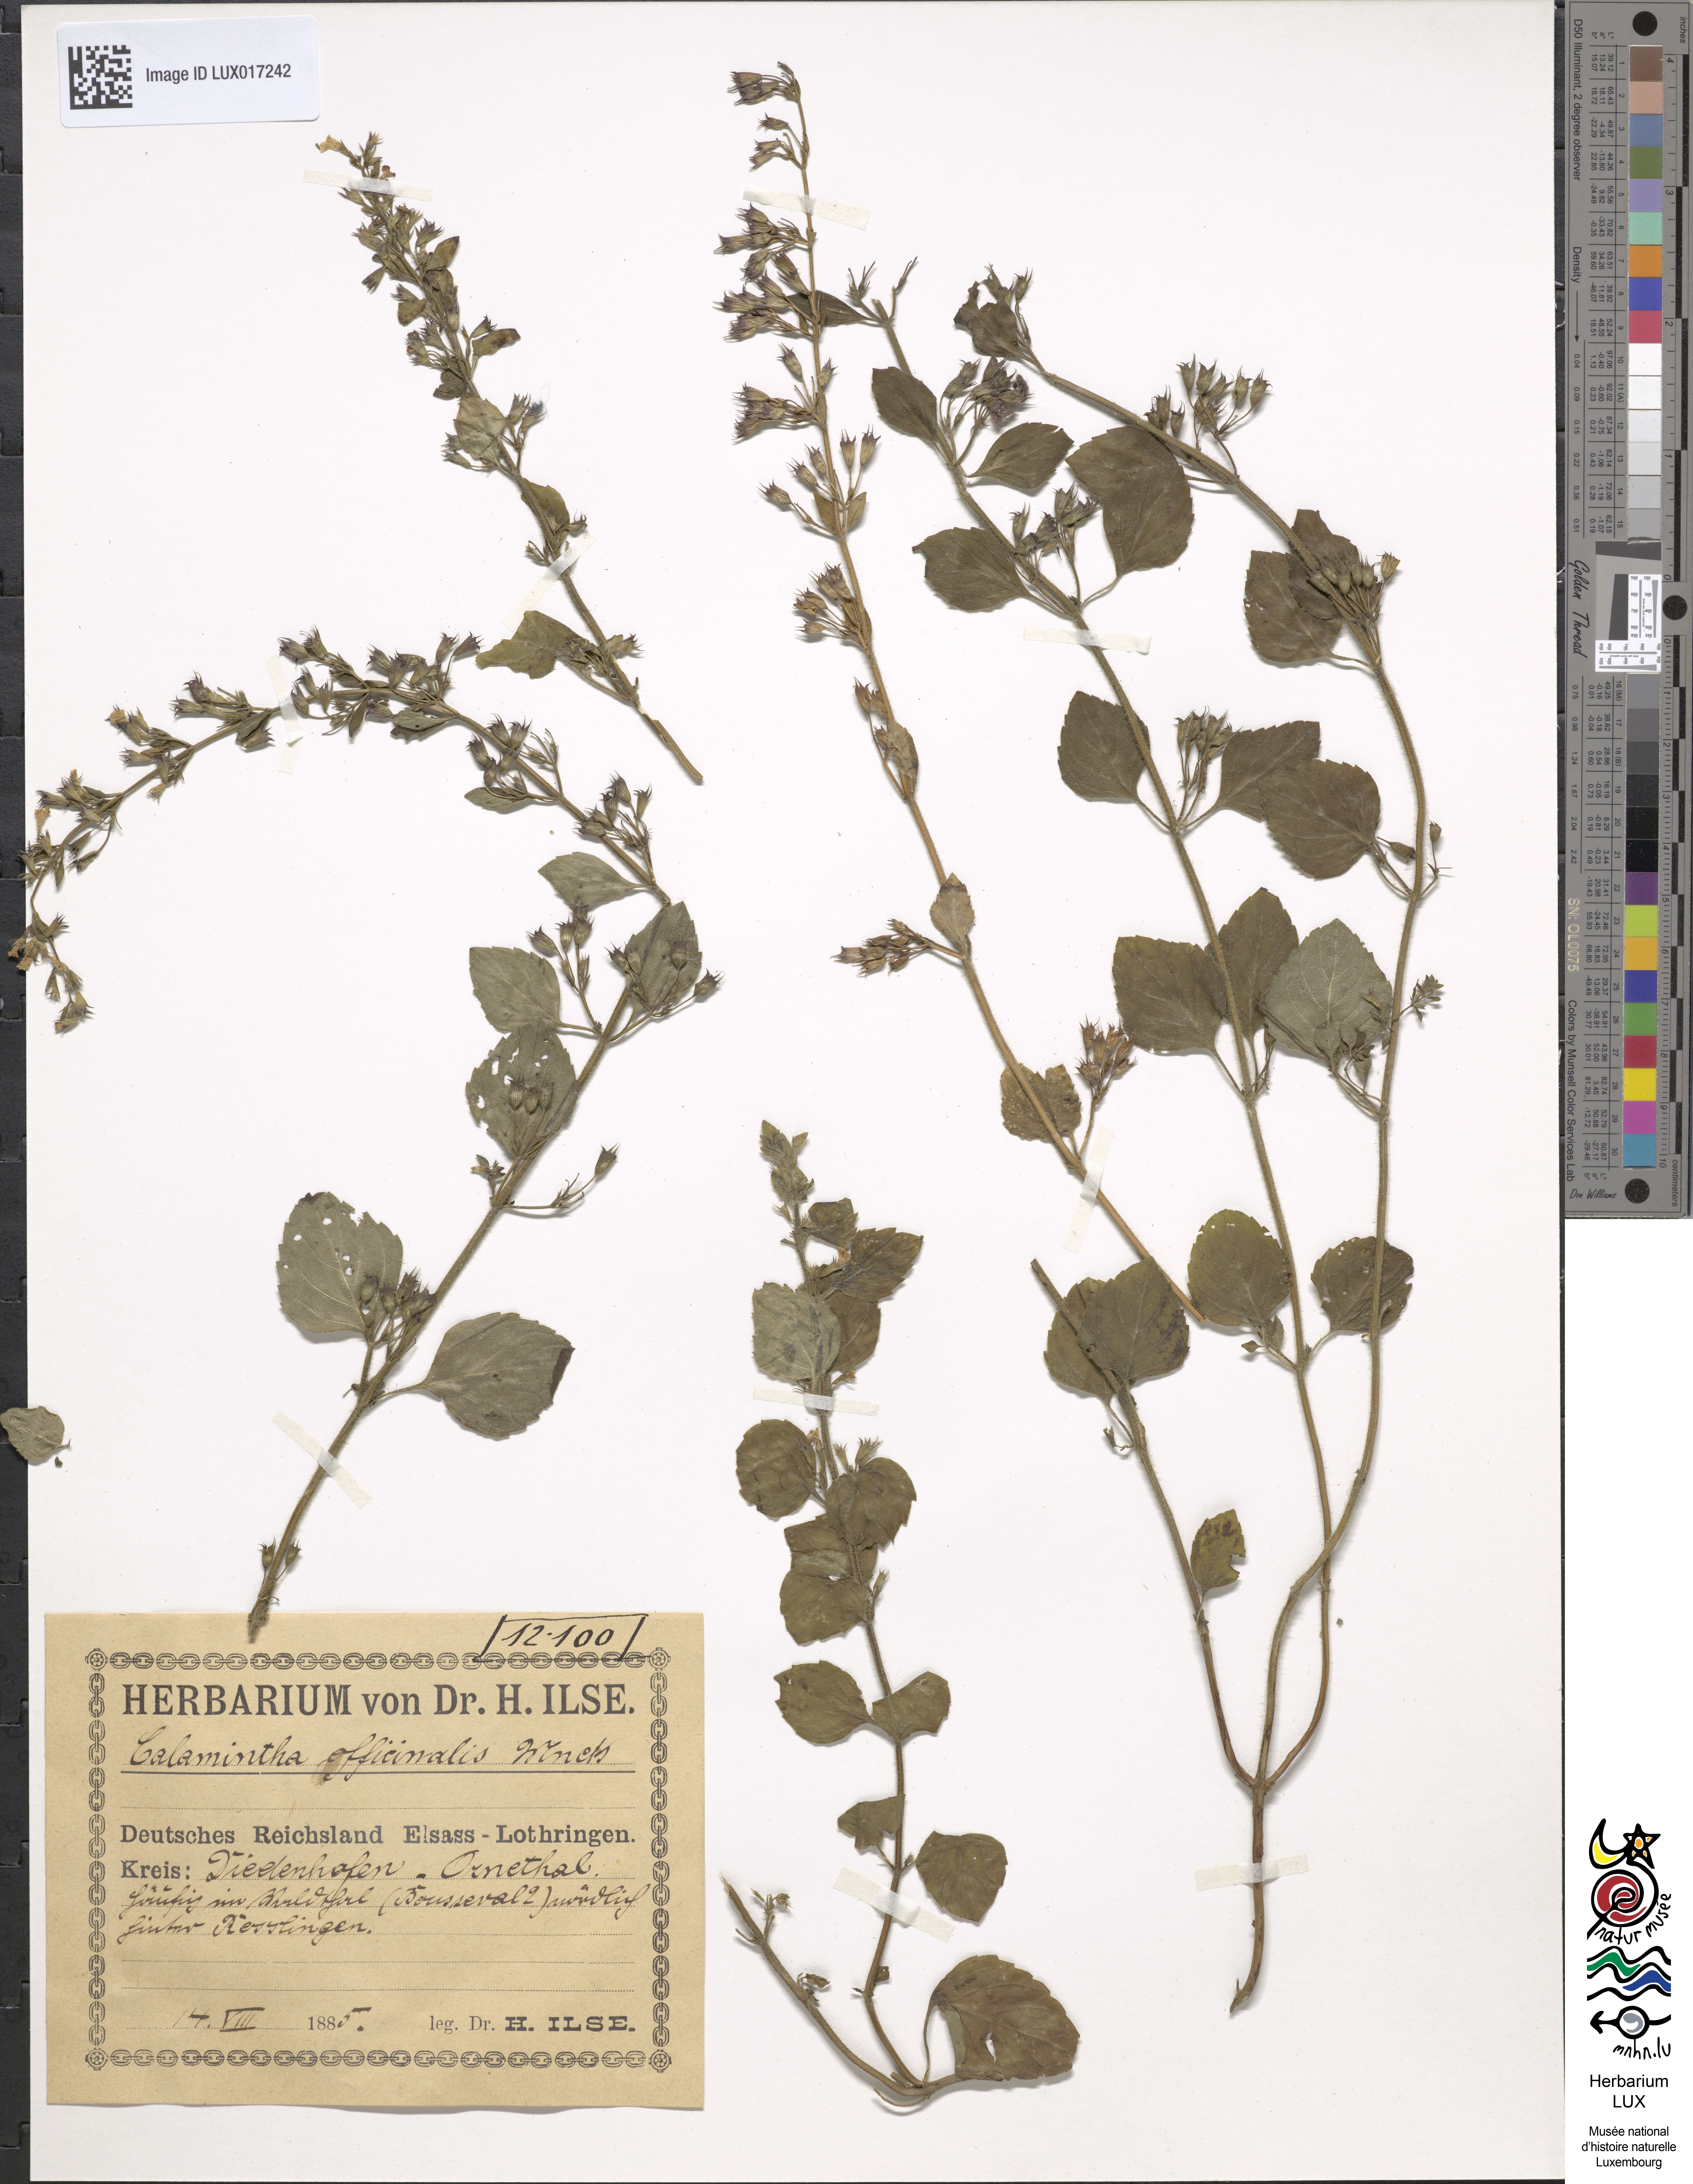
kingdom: Plantae
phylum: Tracheophyta
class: Magnoliopsida
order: Lamiales
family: Lamiaceae
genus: Clinopodium
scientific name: Clinopodium menthifolium
